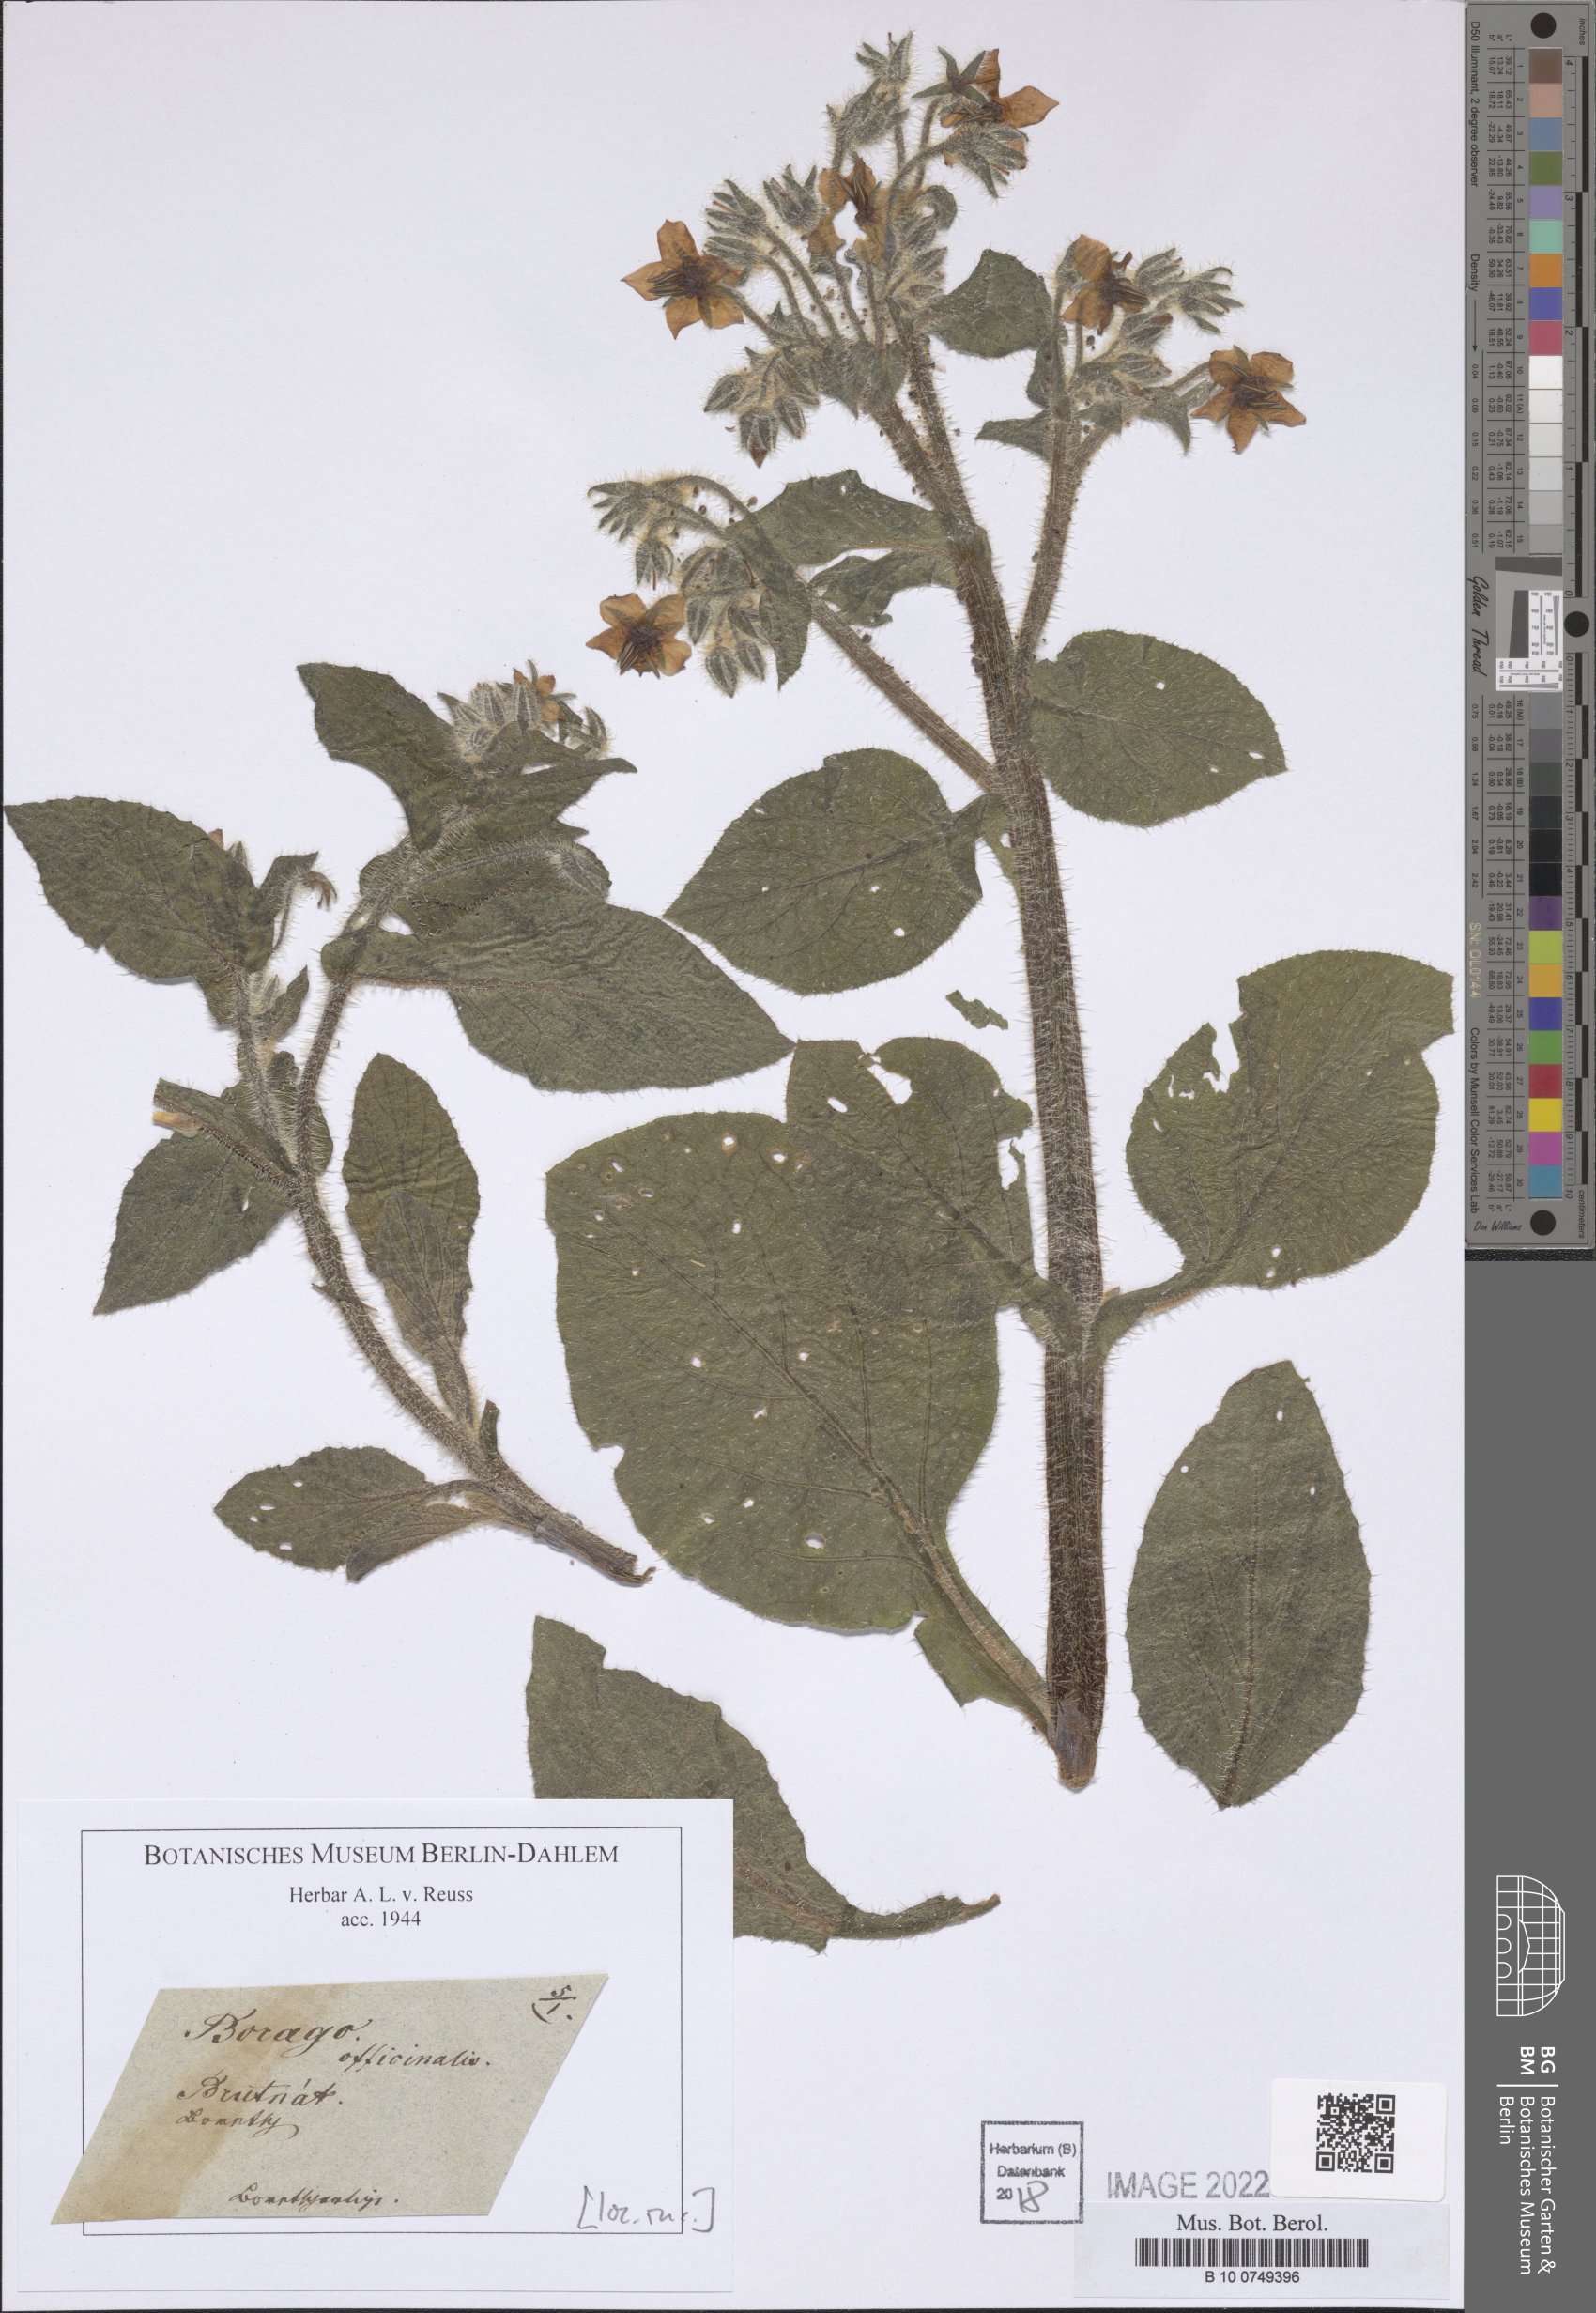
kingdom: Plantae
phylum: Tracheophyta
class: Magnoliopsida
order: Boraginales
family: Boraginaceae
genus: Borago
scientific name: Borago officinalis
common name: Borage
